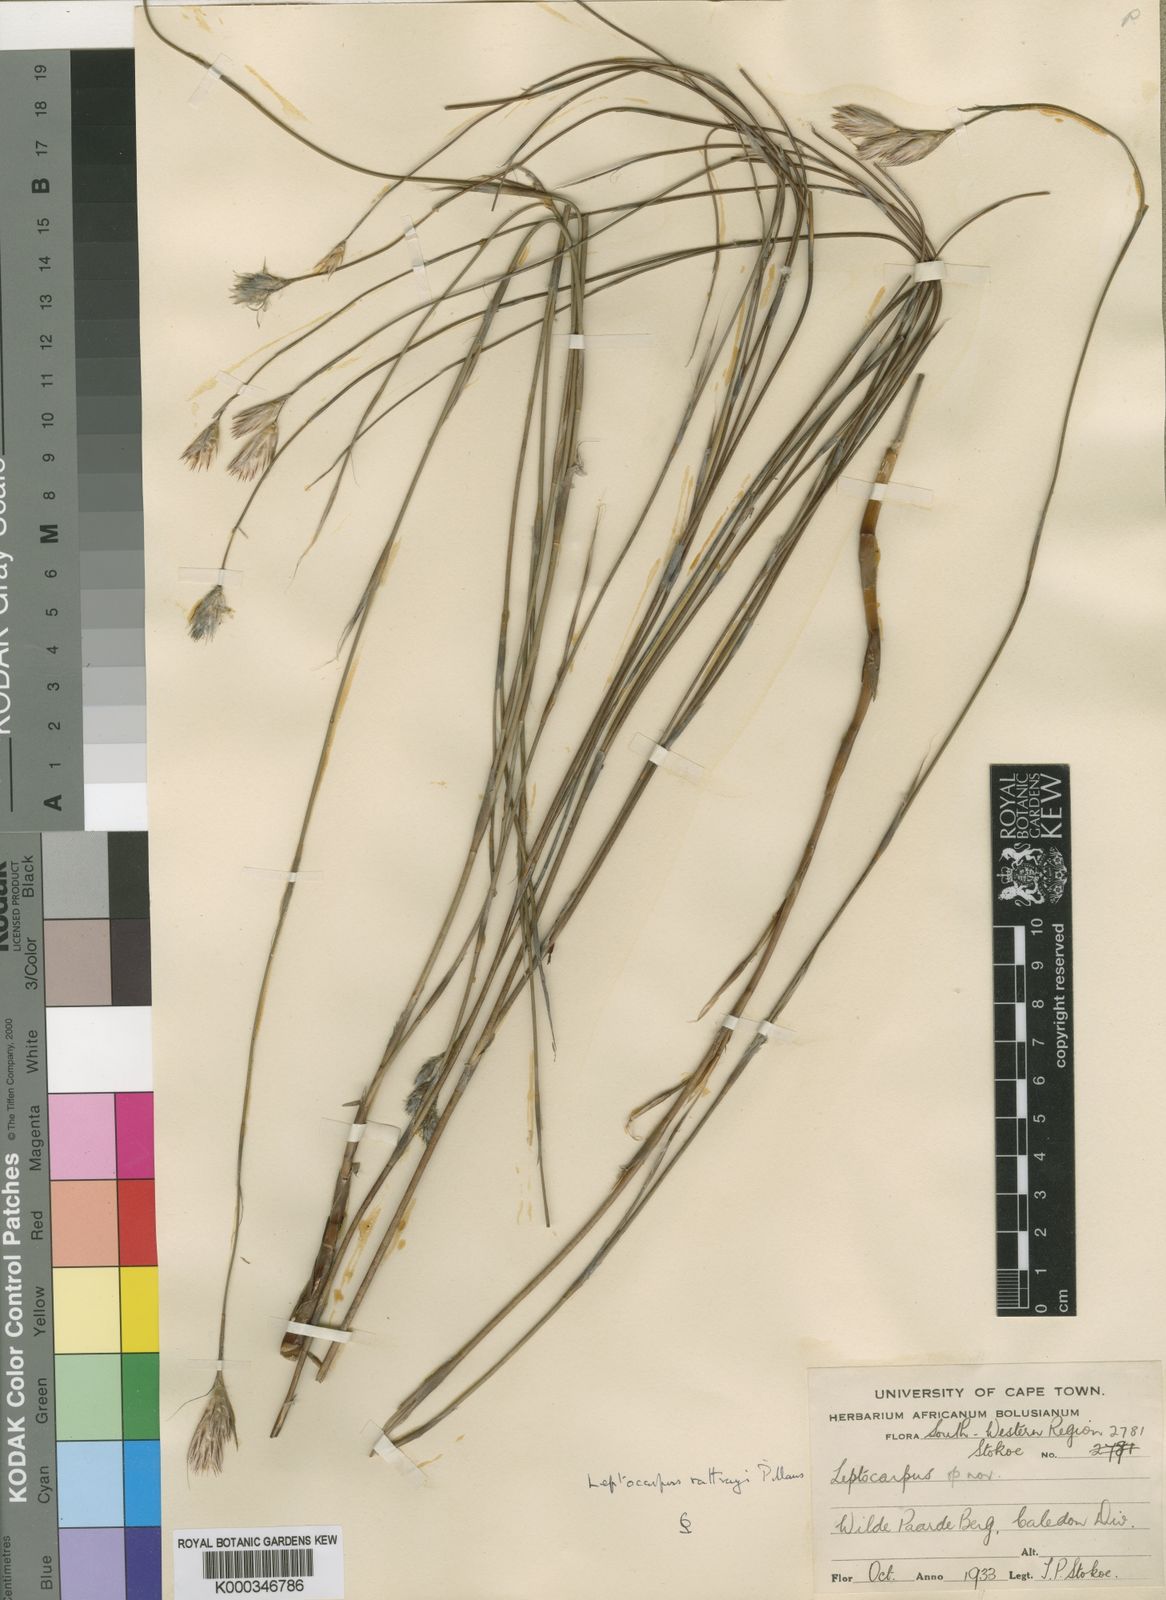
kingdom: Plantae
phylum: Tracheophyta
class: Liliopsida
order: Poales
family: Restionaceae
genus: Hydrophilus
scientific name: Hydrophilus rattrayi
